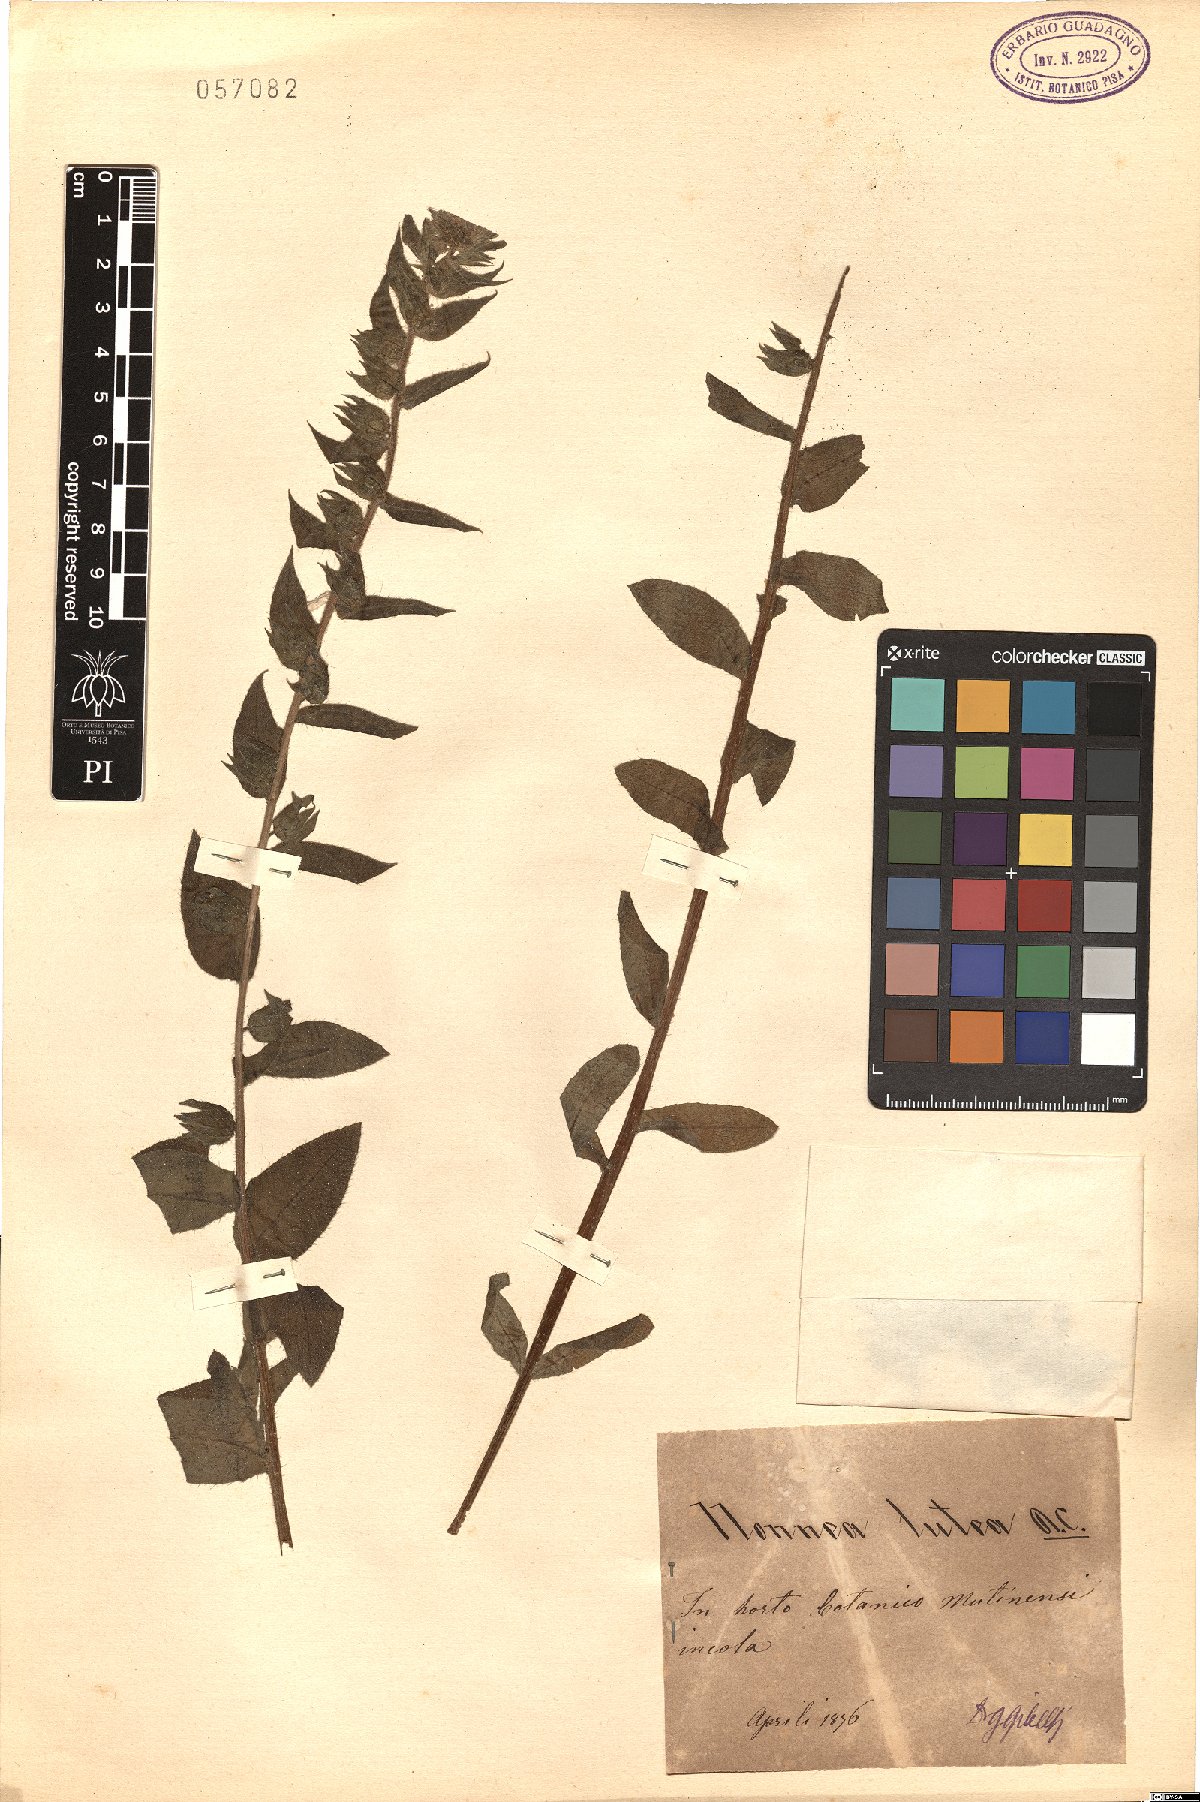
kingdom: Plantae
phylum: Tracheophyta
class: Magnoliopsida
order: Boraginales
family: Boraginaceae
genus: Nonea
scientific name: Nonea lutea
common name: Yellow nonea
